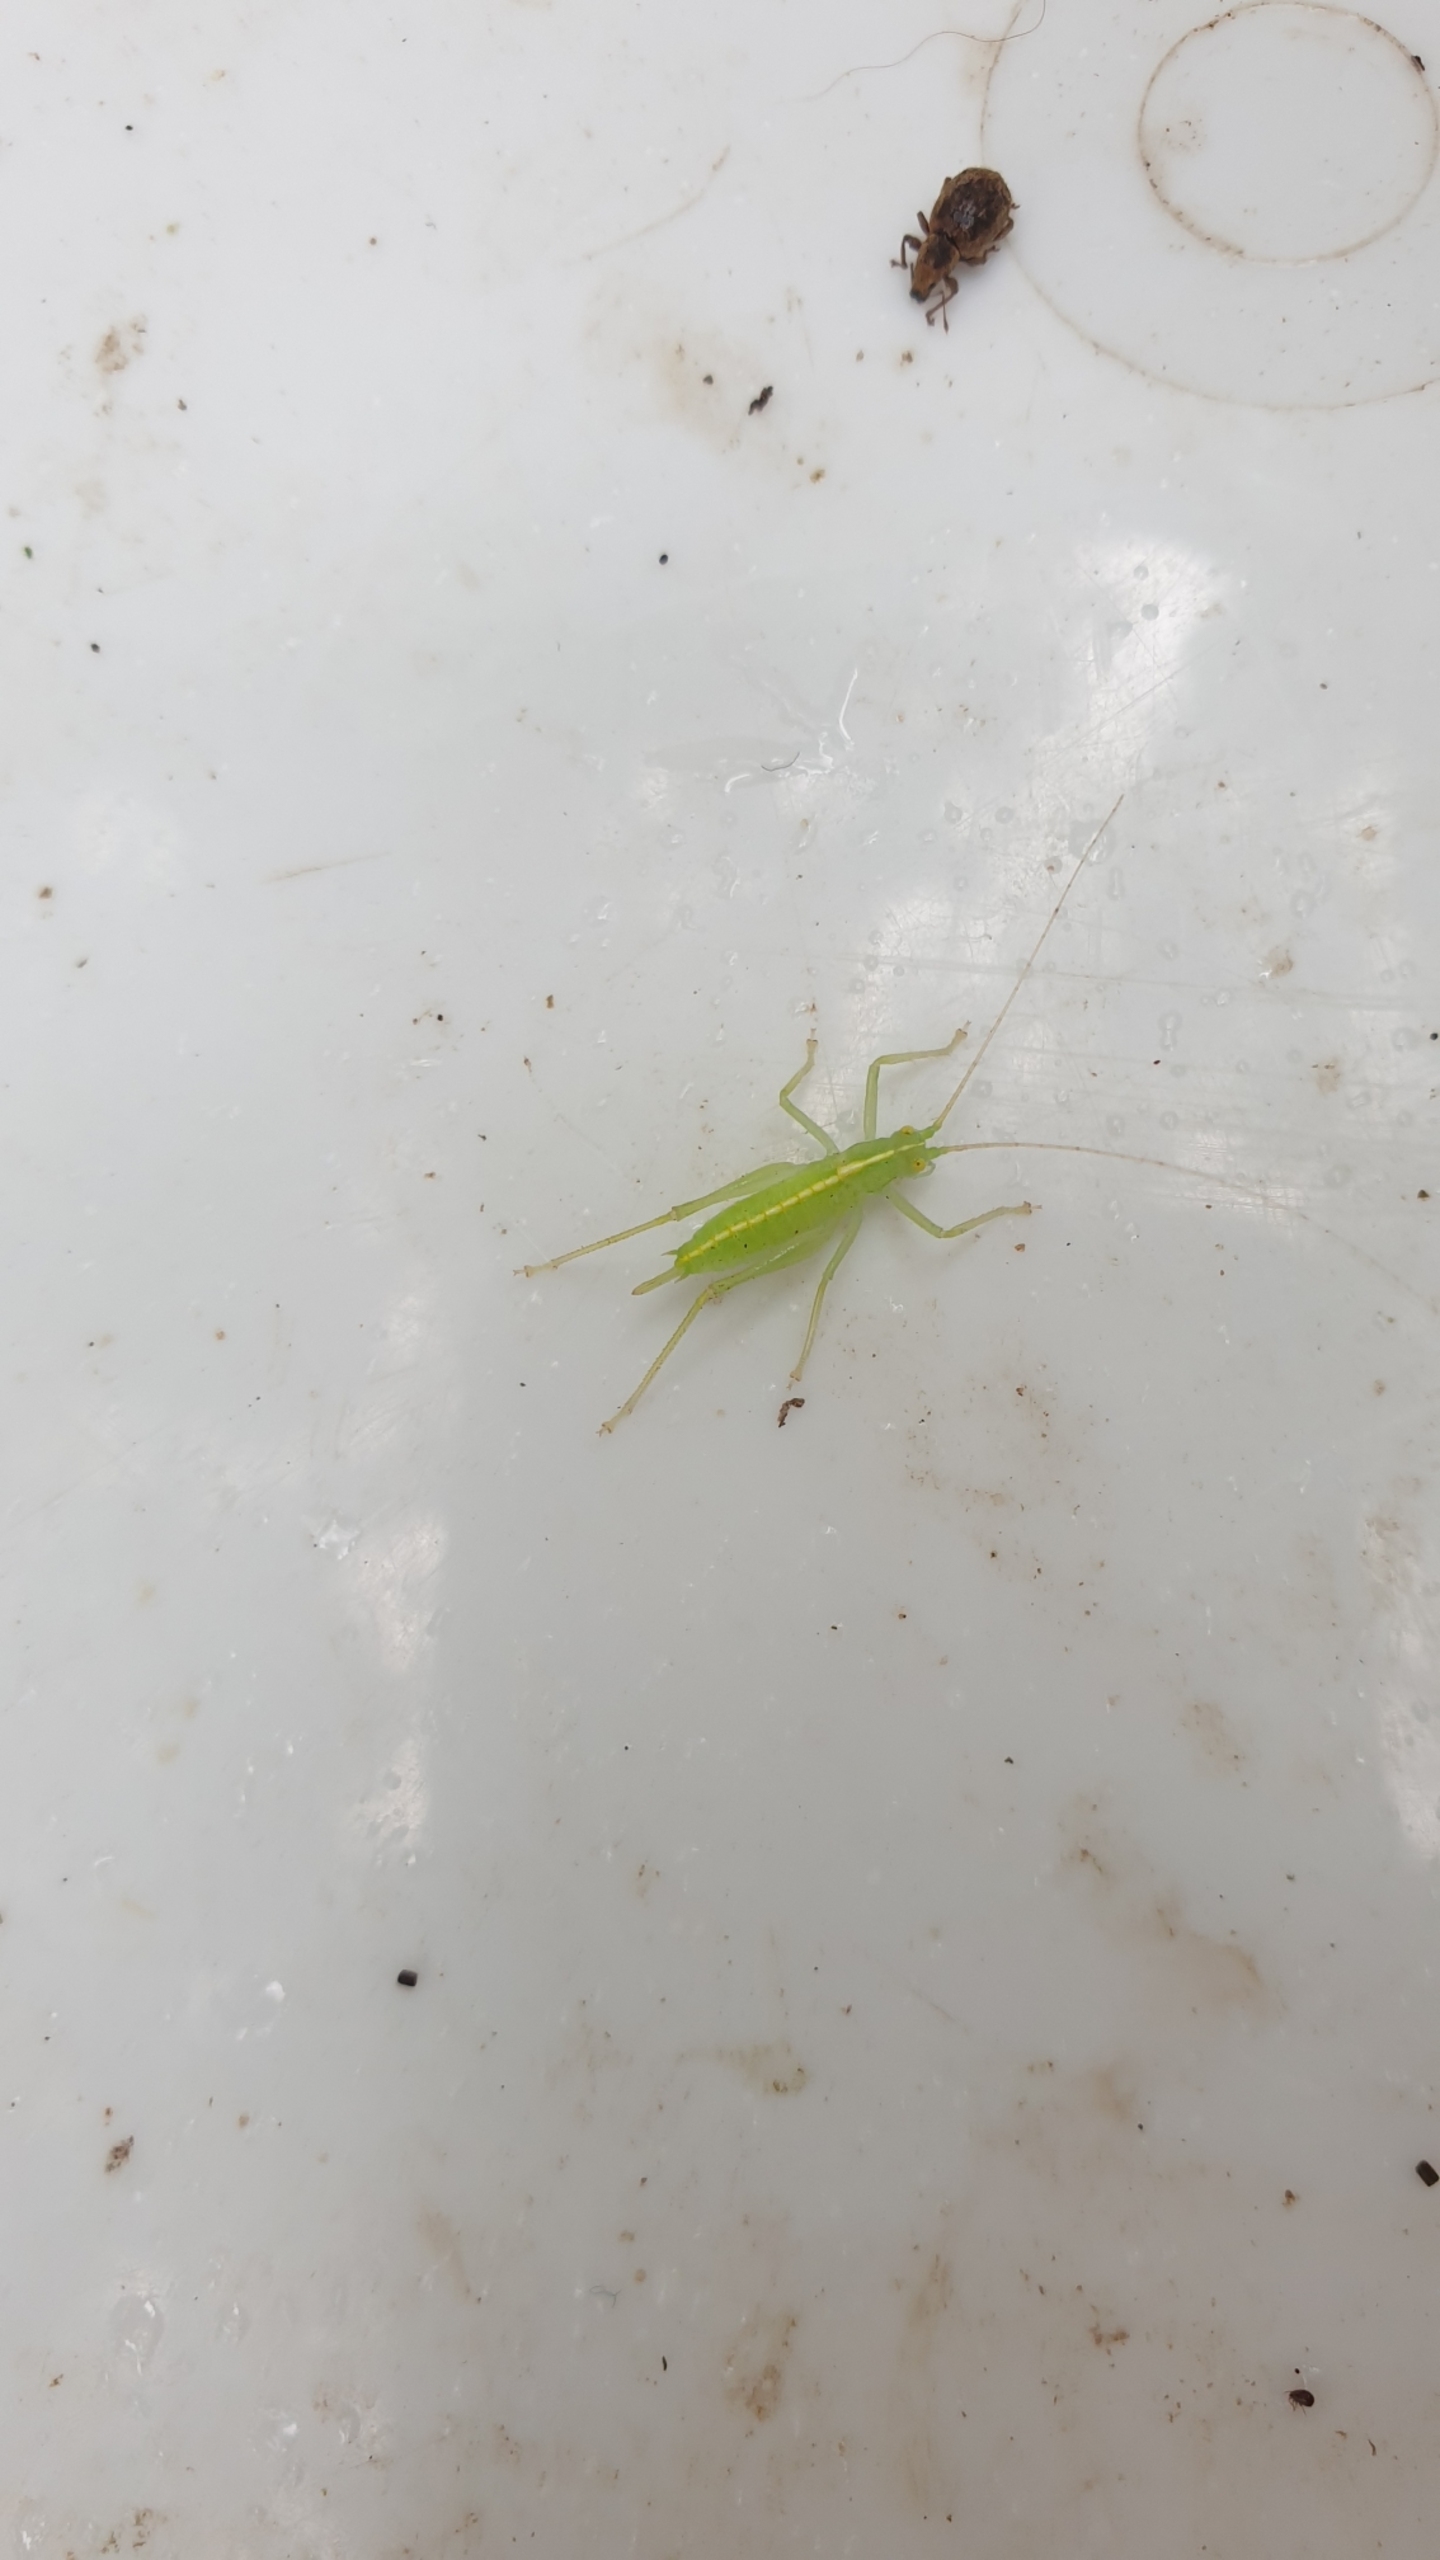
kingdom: Animalia
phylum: Arthropoda
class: Insecta
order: Orthoptera
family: Tettigoniidae
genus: Meconema
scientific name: Meconema meridionale
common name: Kortvinget egegræshoppe
